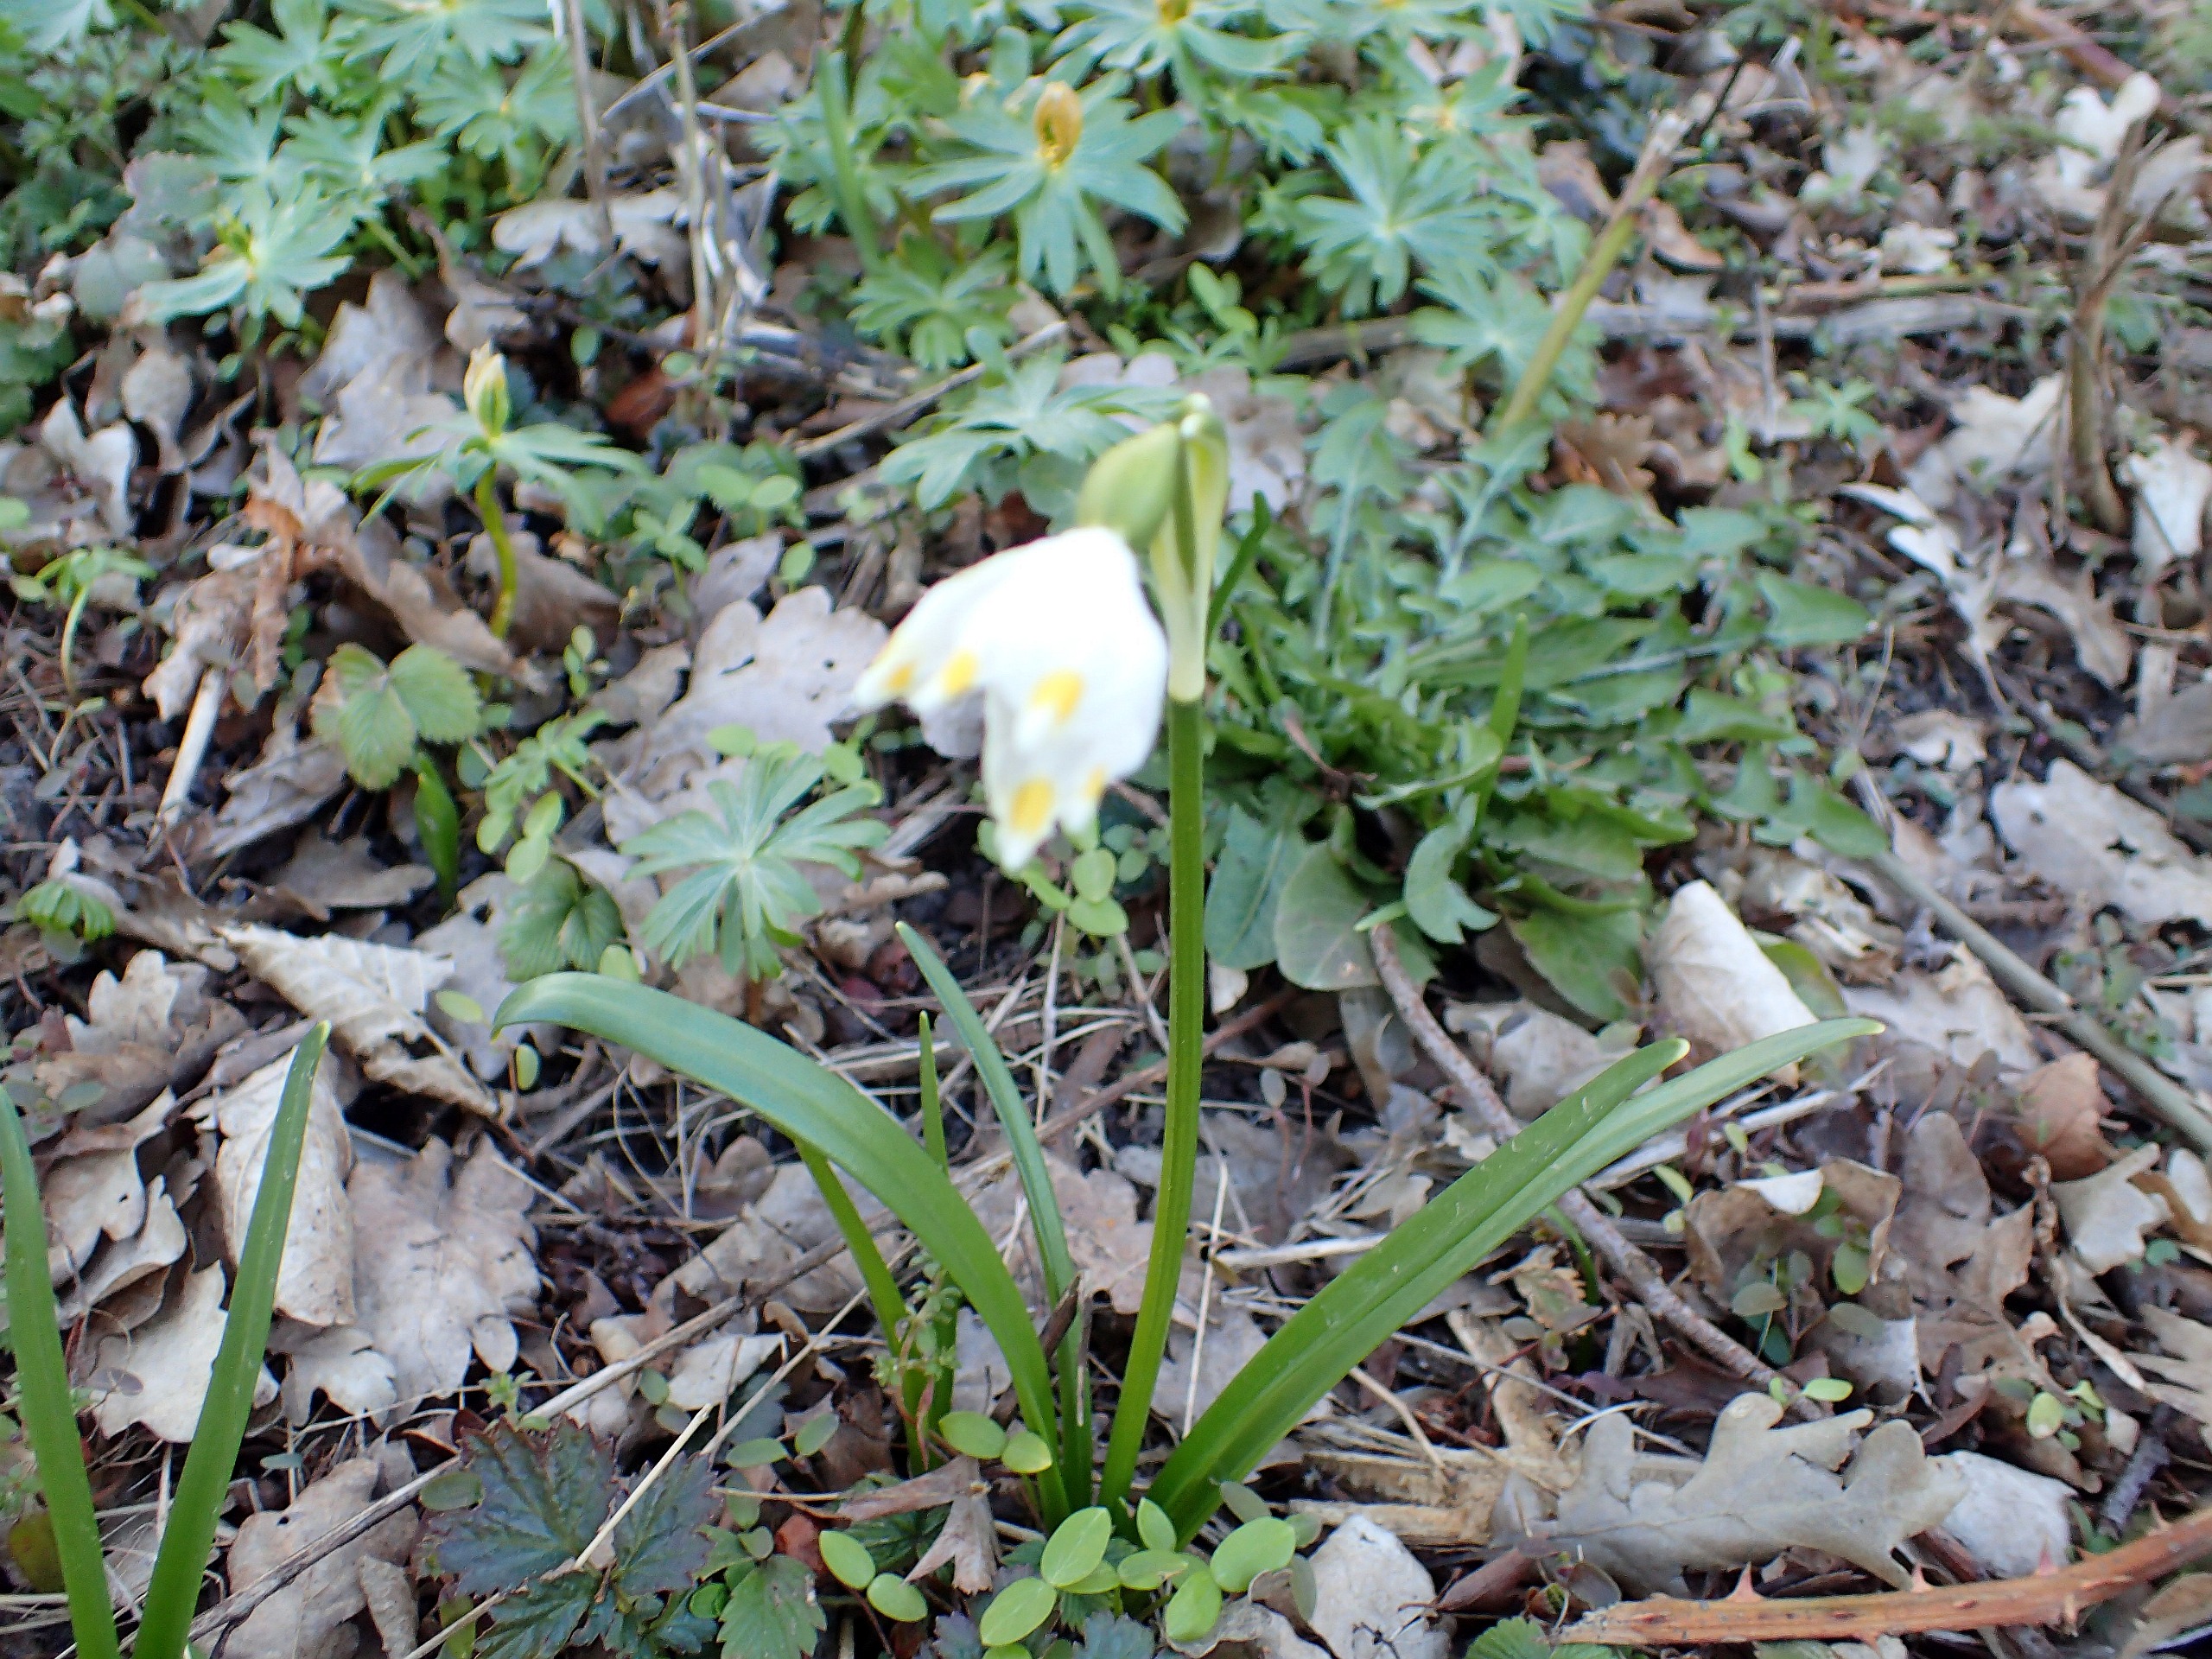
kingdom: Plantae
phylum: Tracheophyta
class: Liliopsida
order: Asparagales
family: Amaryllidaceae
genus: Leucojum
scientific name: Leucojum vernum
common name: Dorthealilje
